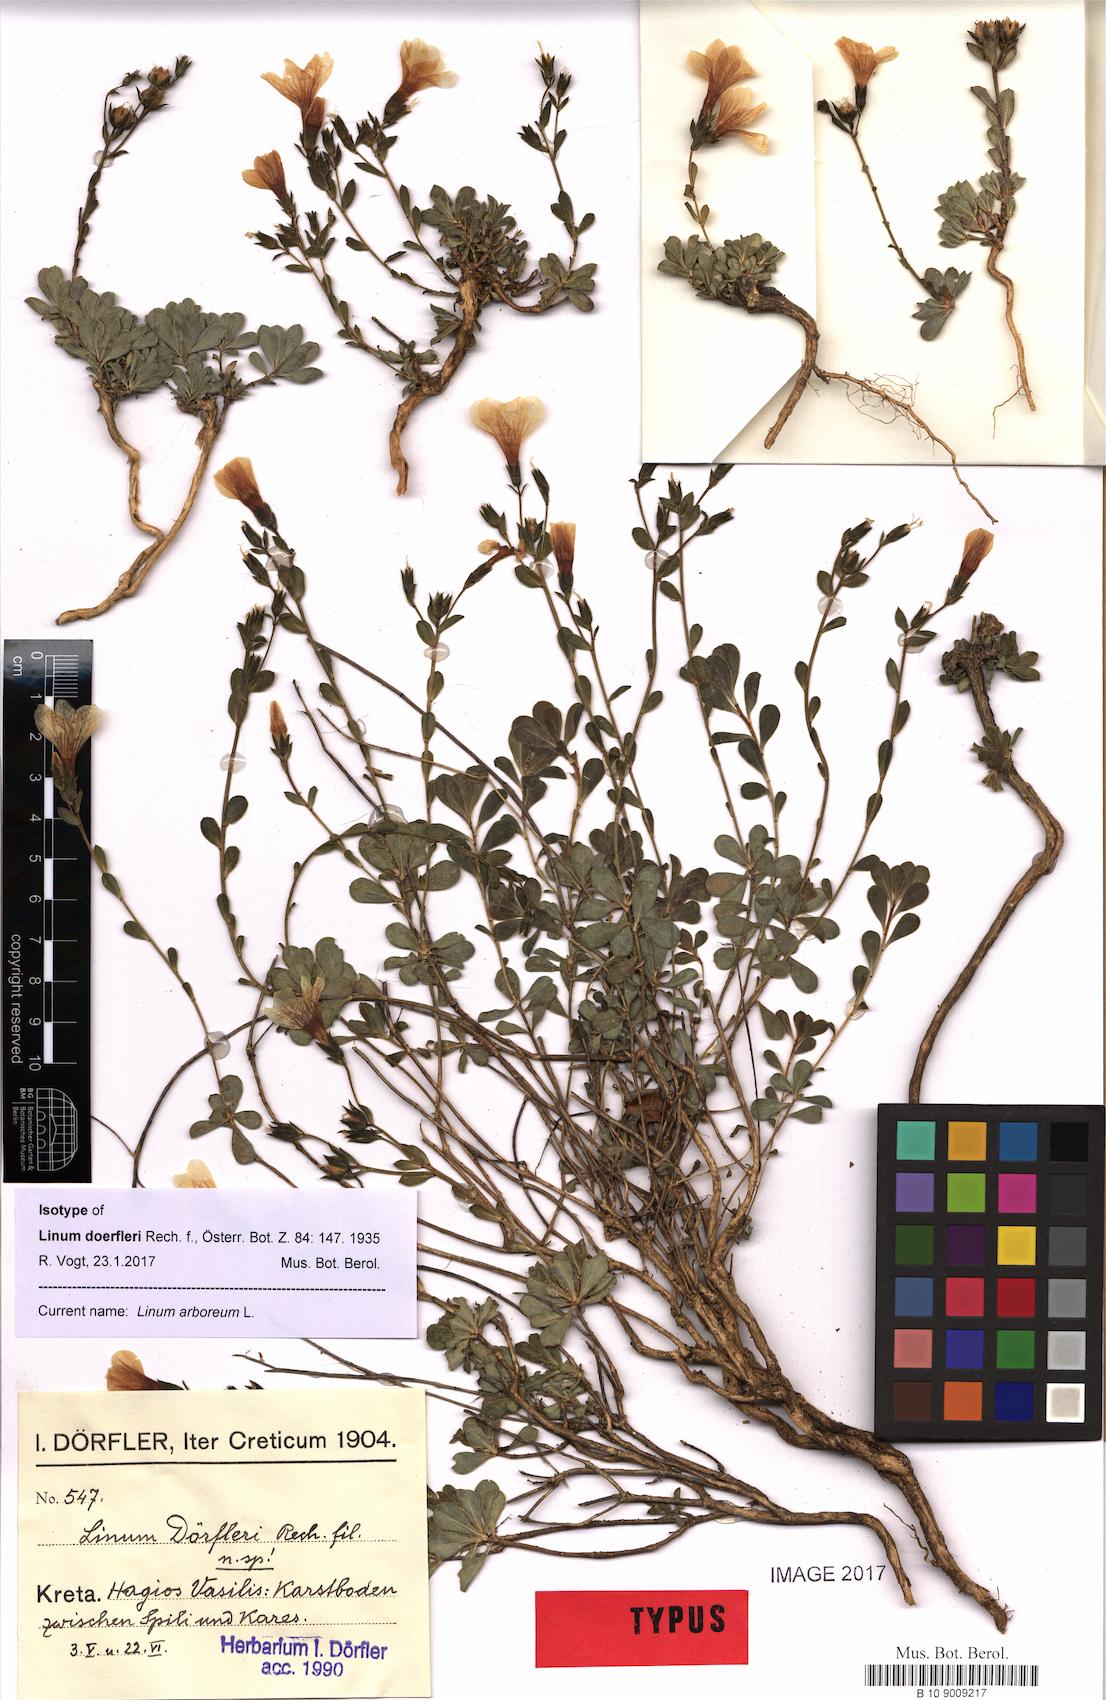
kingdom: Plantae
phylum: Tracheophyta
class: Magnoliopsida
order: Malpighiales
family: Linaceae
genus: Linum
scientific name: Linum arboreum
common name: Tree flax
